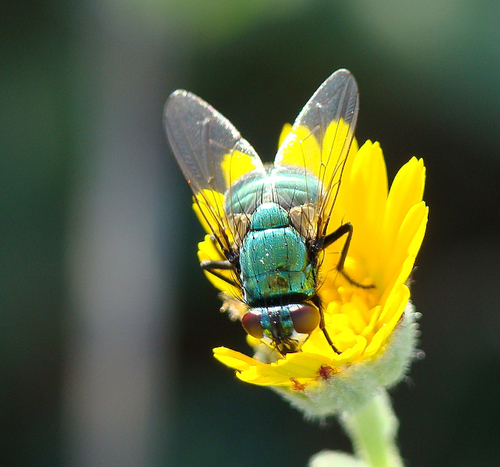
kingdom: Animalia
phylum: Arthropoda
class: Insecta
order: Diptera
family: Muscidae
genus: Neomyia
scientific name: Neomyia cornicina
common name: House fly
